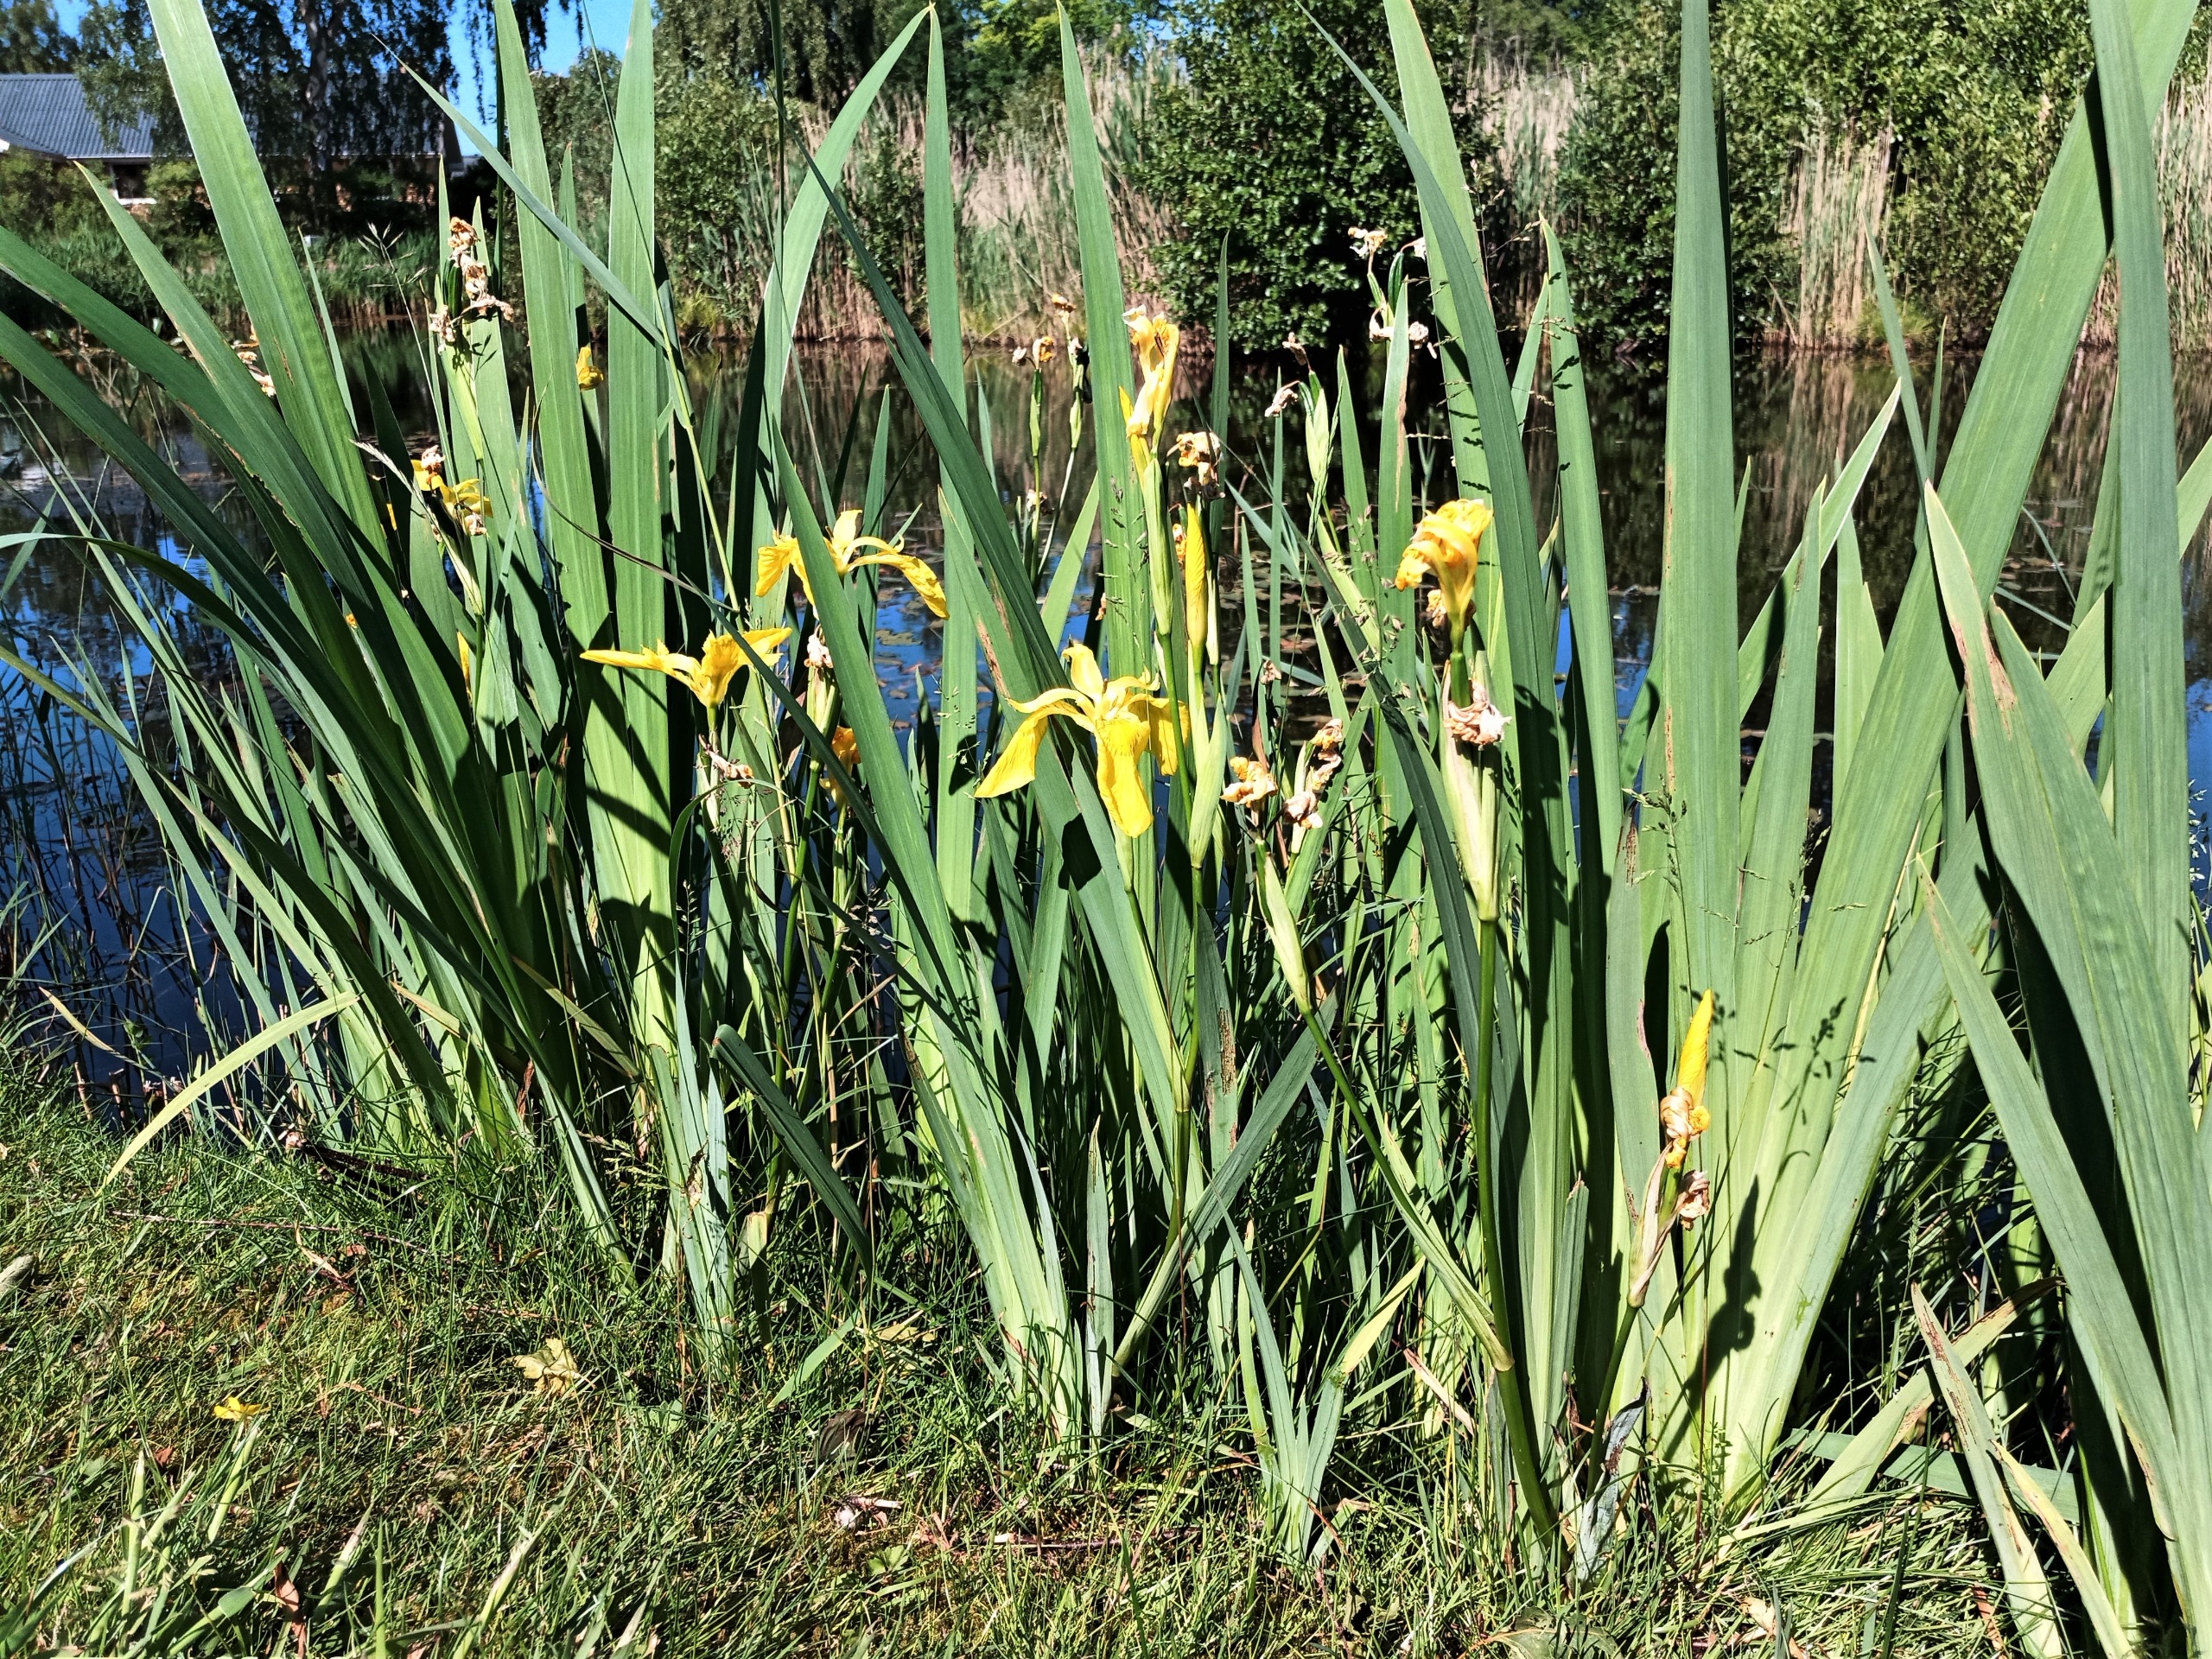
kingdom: Plantae
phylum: Tracheophyta
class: Liliopsida
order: Asparagales
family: Iridaceae
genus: Iris
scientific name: Iris pseudacorus
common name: Gul iris
